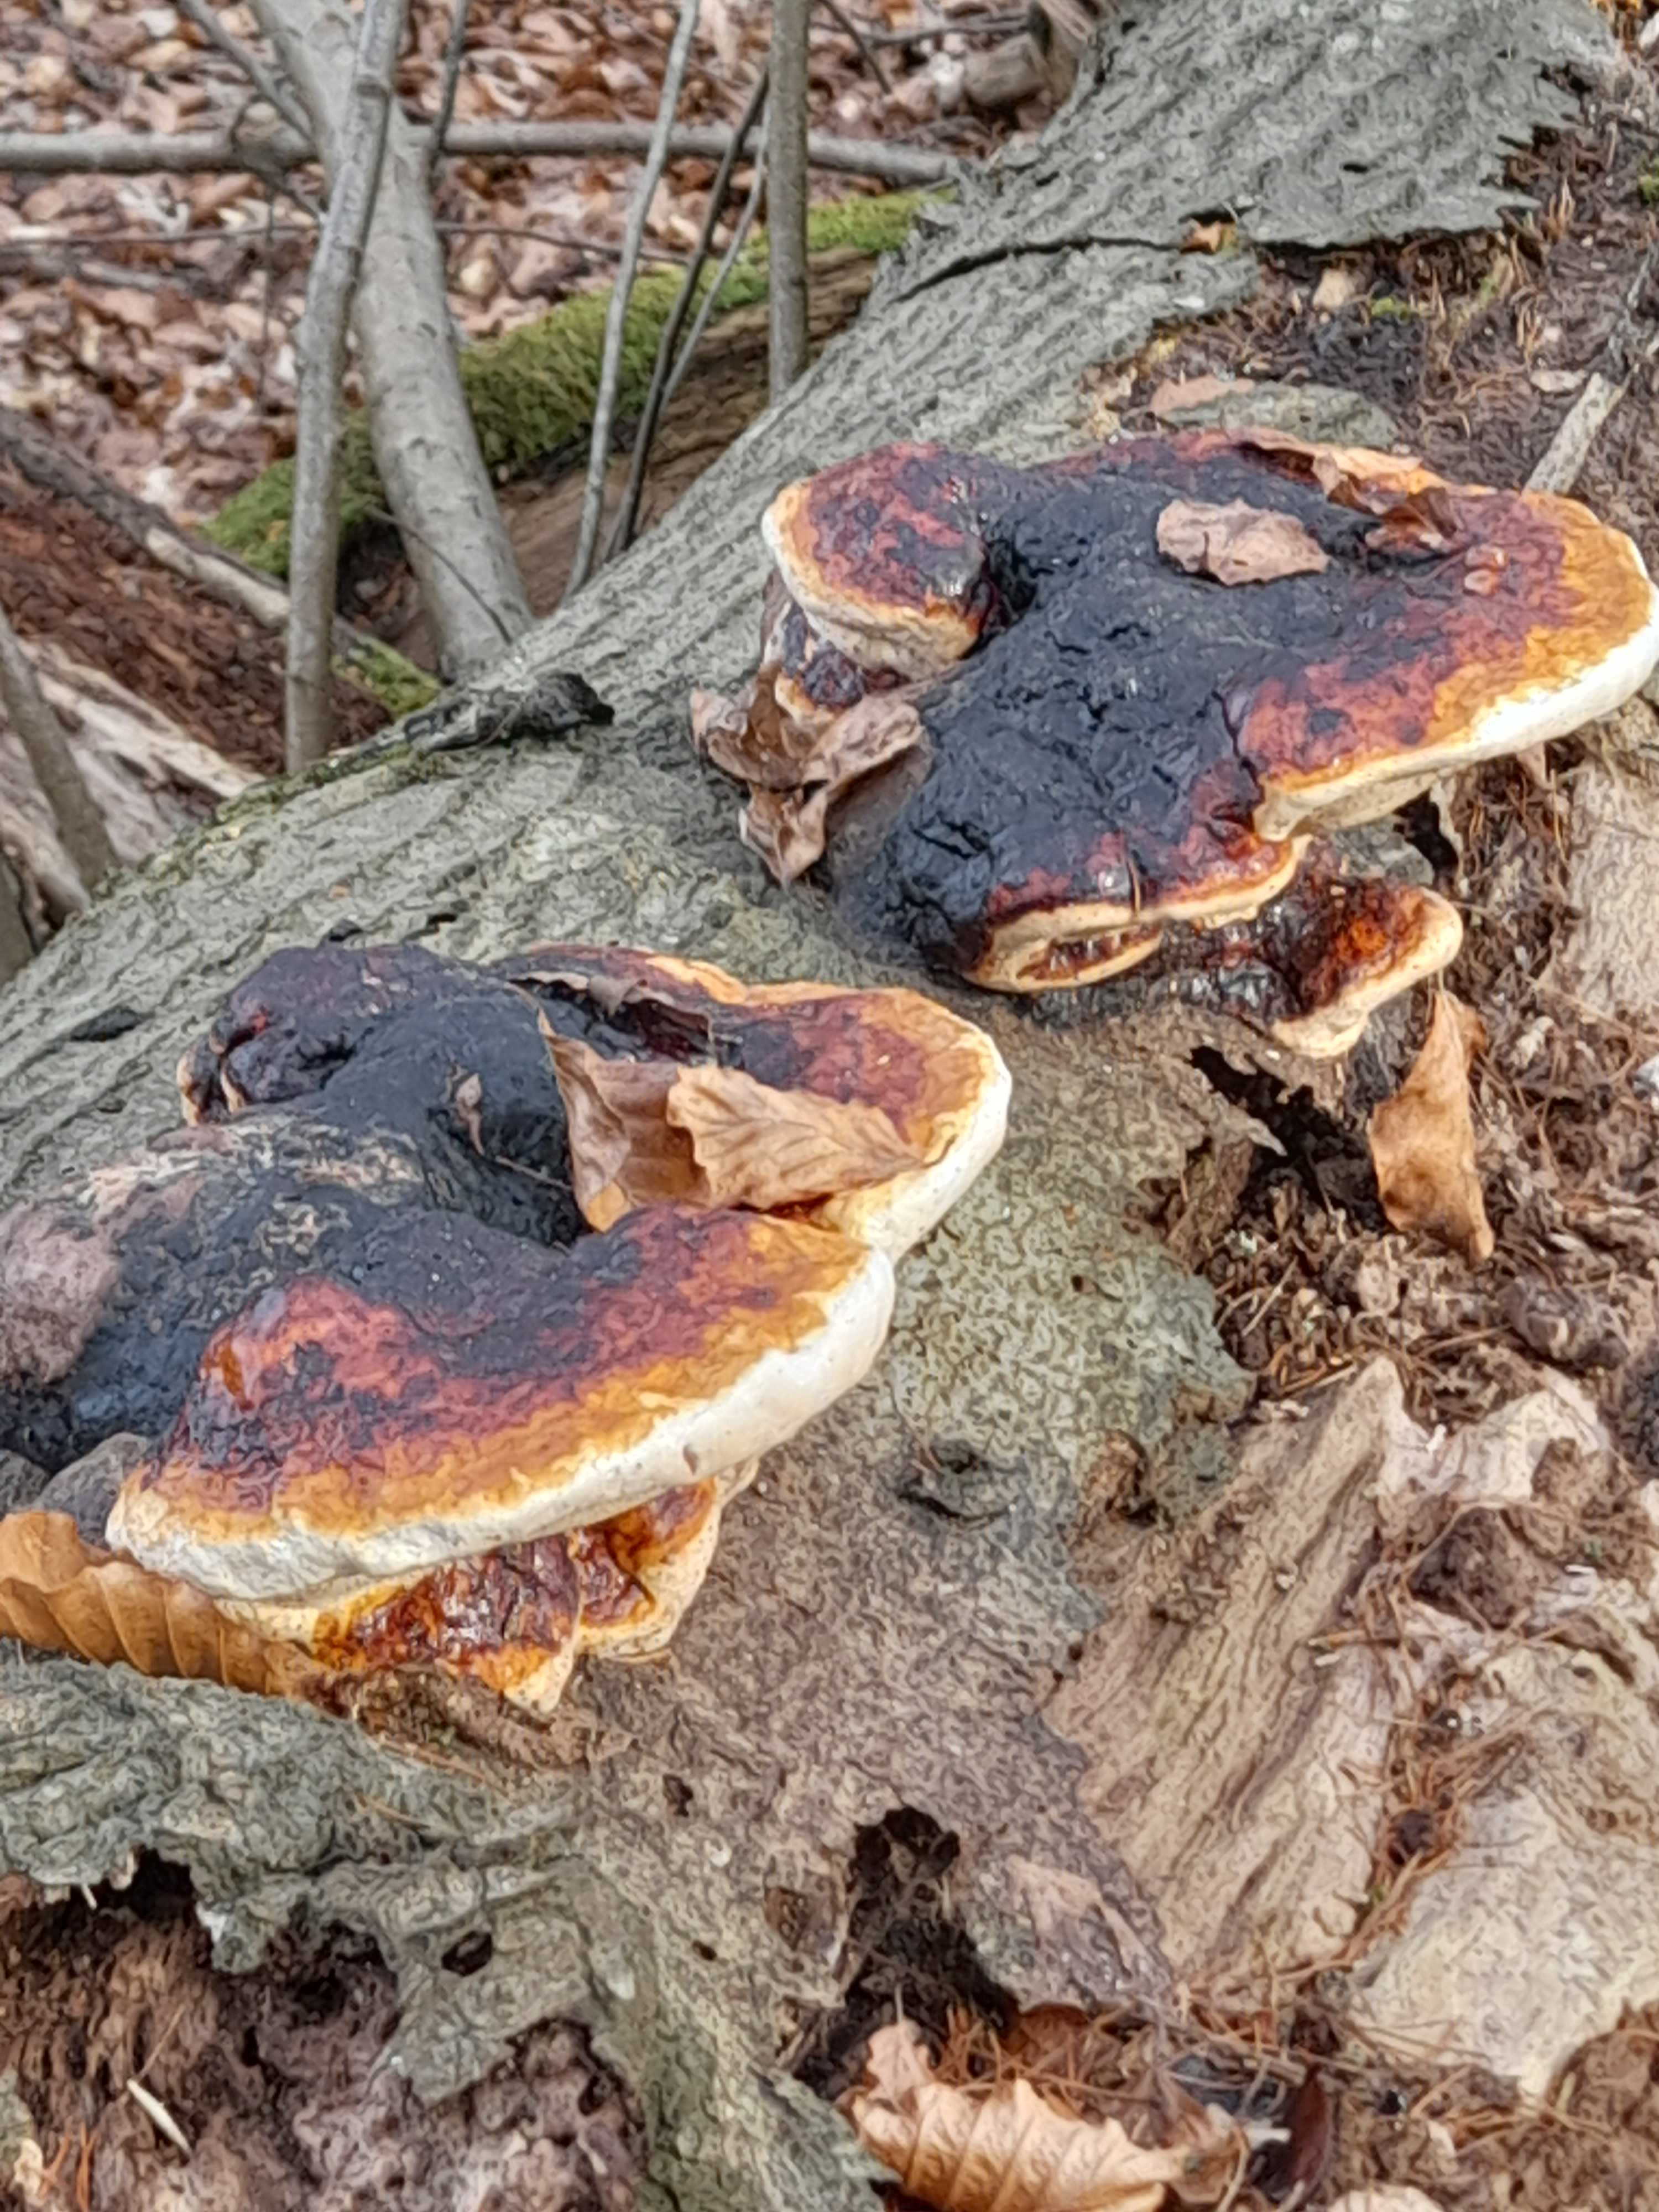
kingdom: Fungi
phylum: Basidiomycota
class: Agaricomycetes
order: Polyporales
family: Fomitopsidaceae
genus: Fomitopsis
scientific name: Fomitopsis pinicola
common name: randbæltet hovporesvamp
